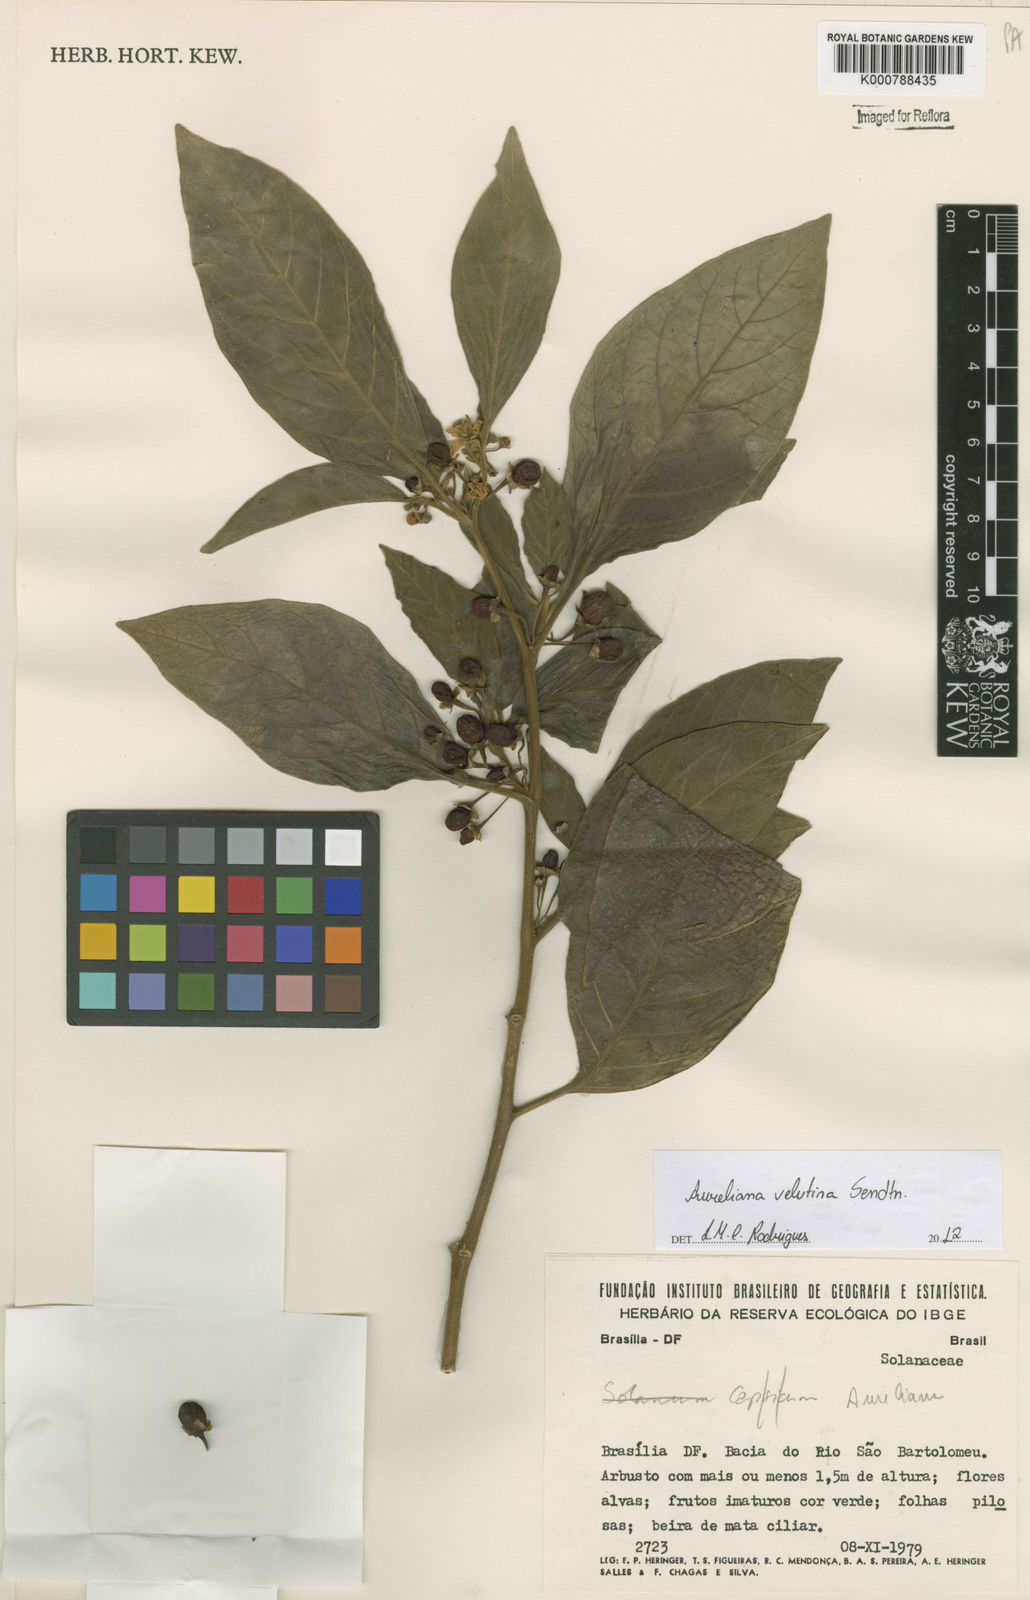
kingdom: Plantae
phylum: Tracheophyta
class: Magnoliopsida
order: Solanales
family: Solanaceae
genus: Athenaea
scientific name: Athenaea velutina
